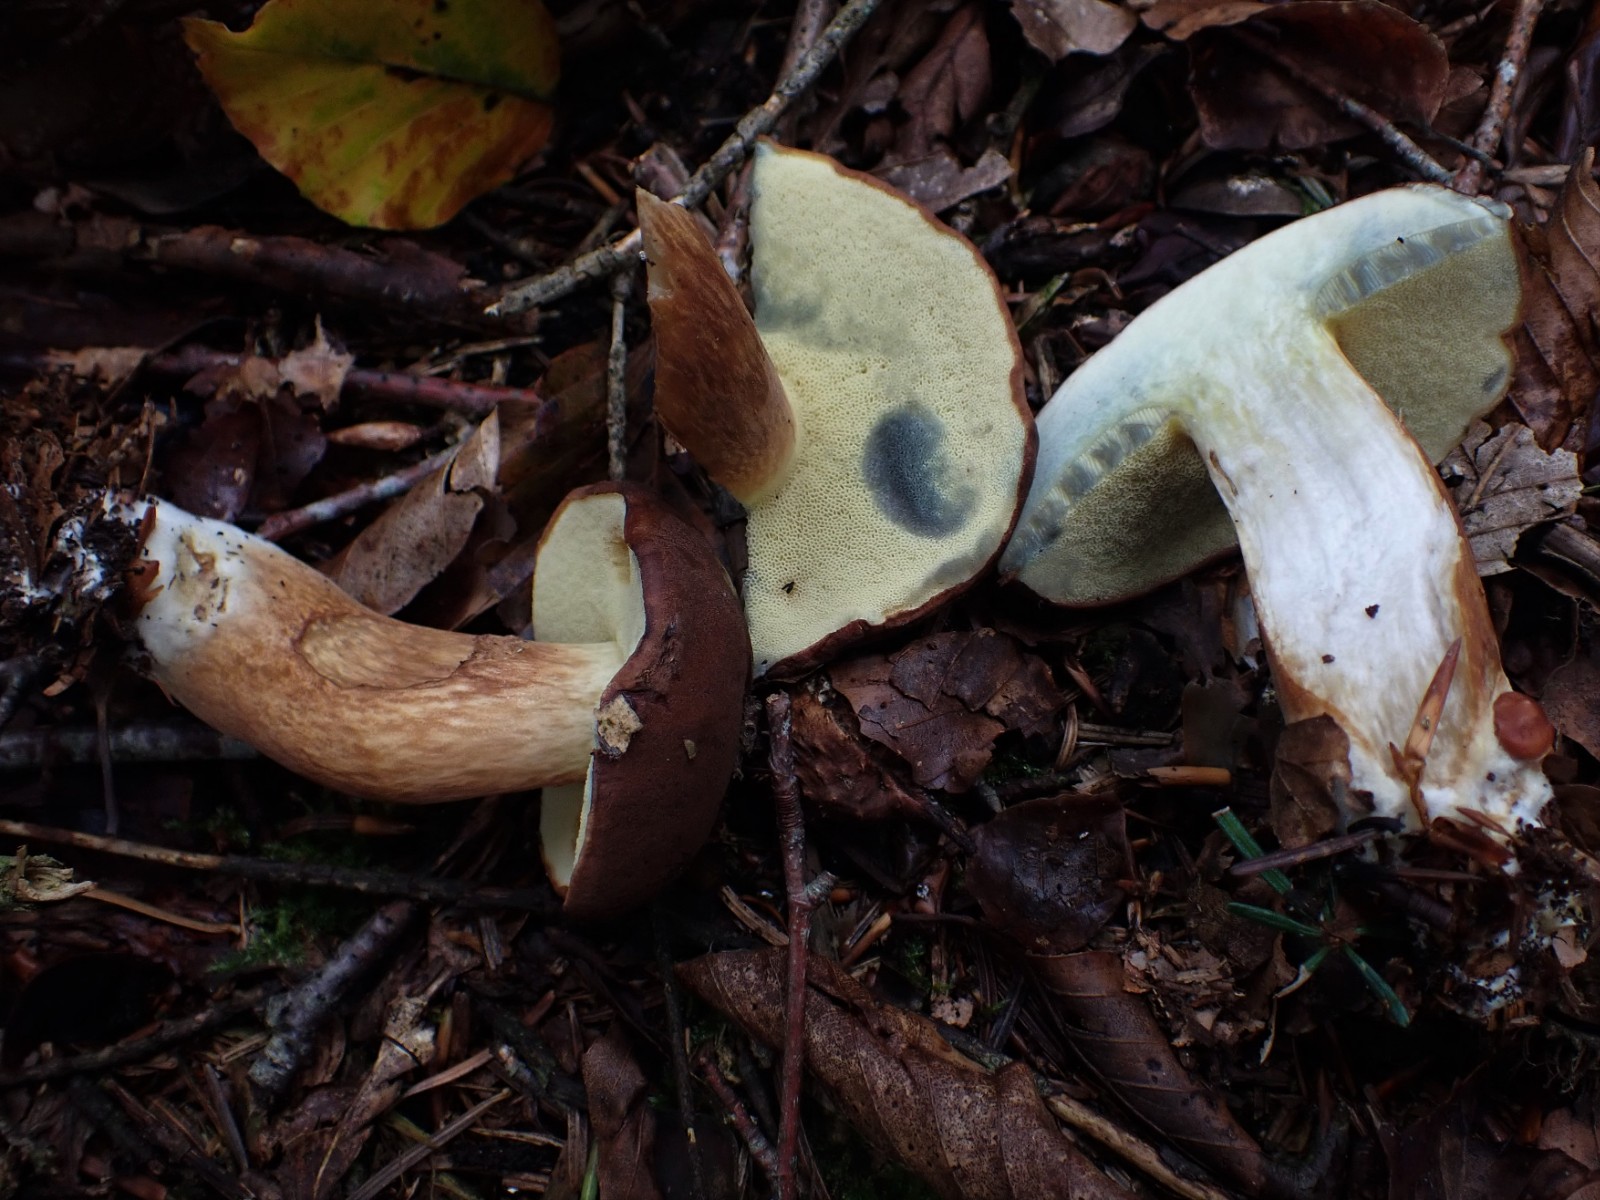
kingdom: Fungi
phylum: Basidiomycota
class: Agaricomycetes
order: Boletales
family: Boletaceae
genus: Imleria
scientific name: Imleria badia
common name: brunstokket rørhat
